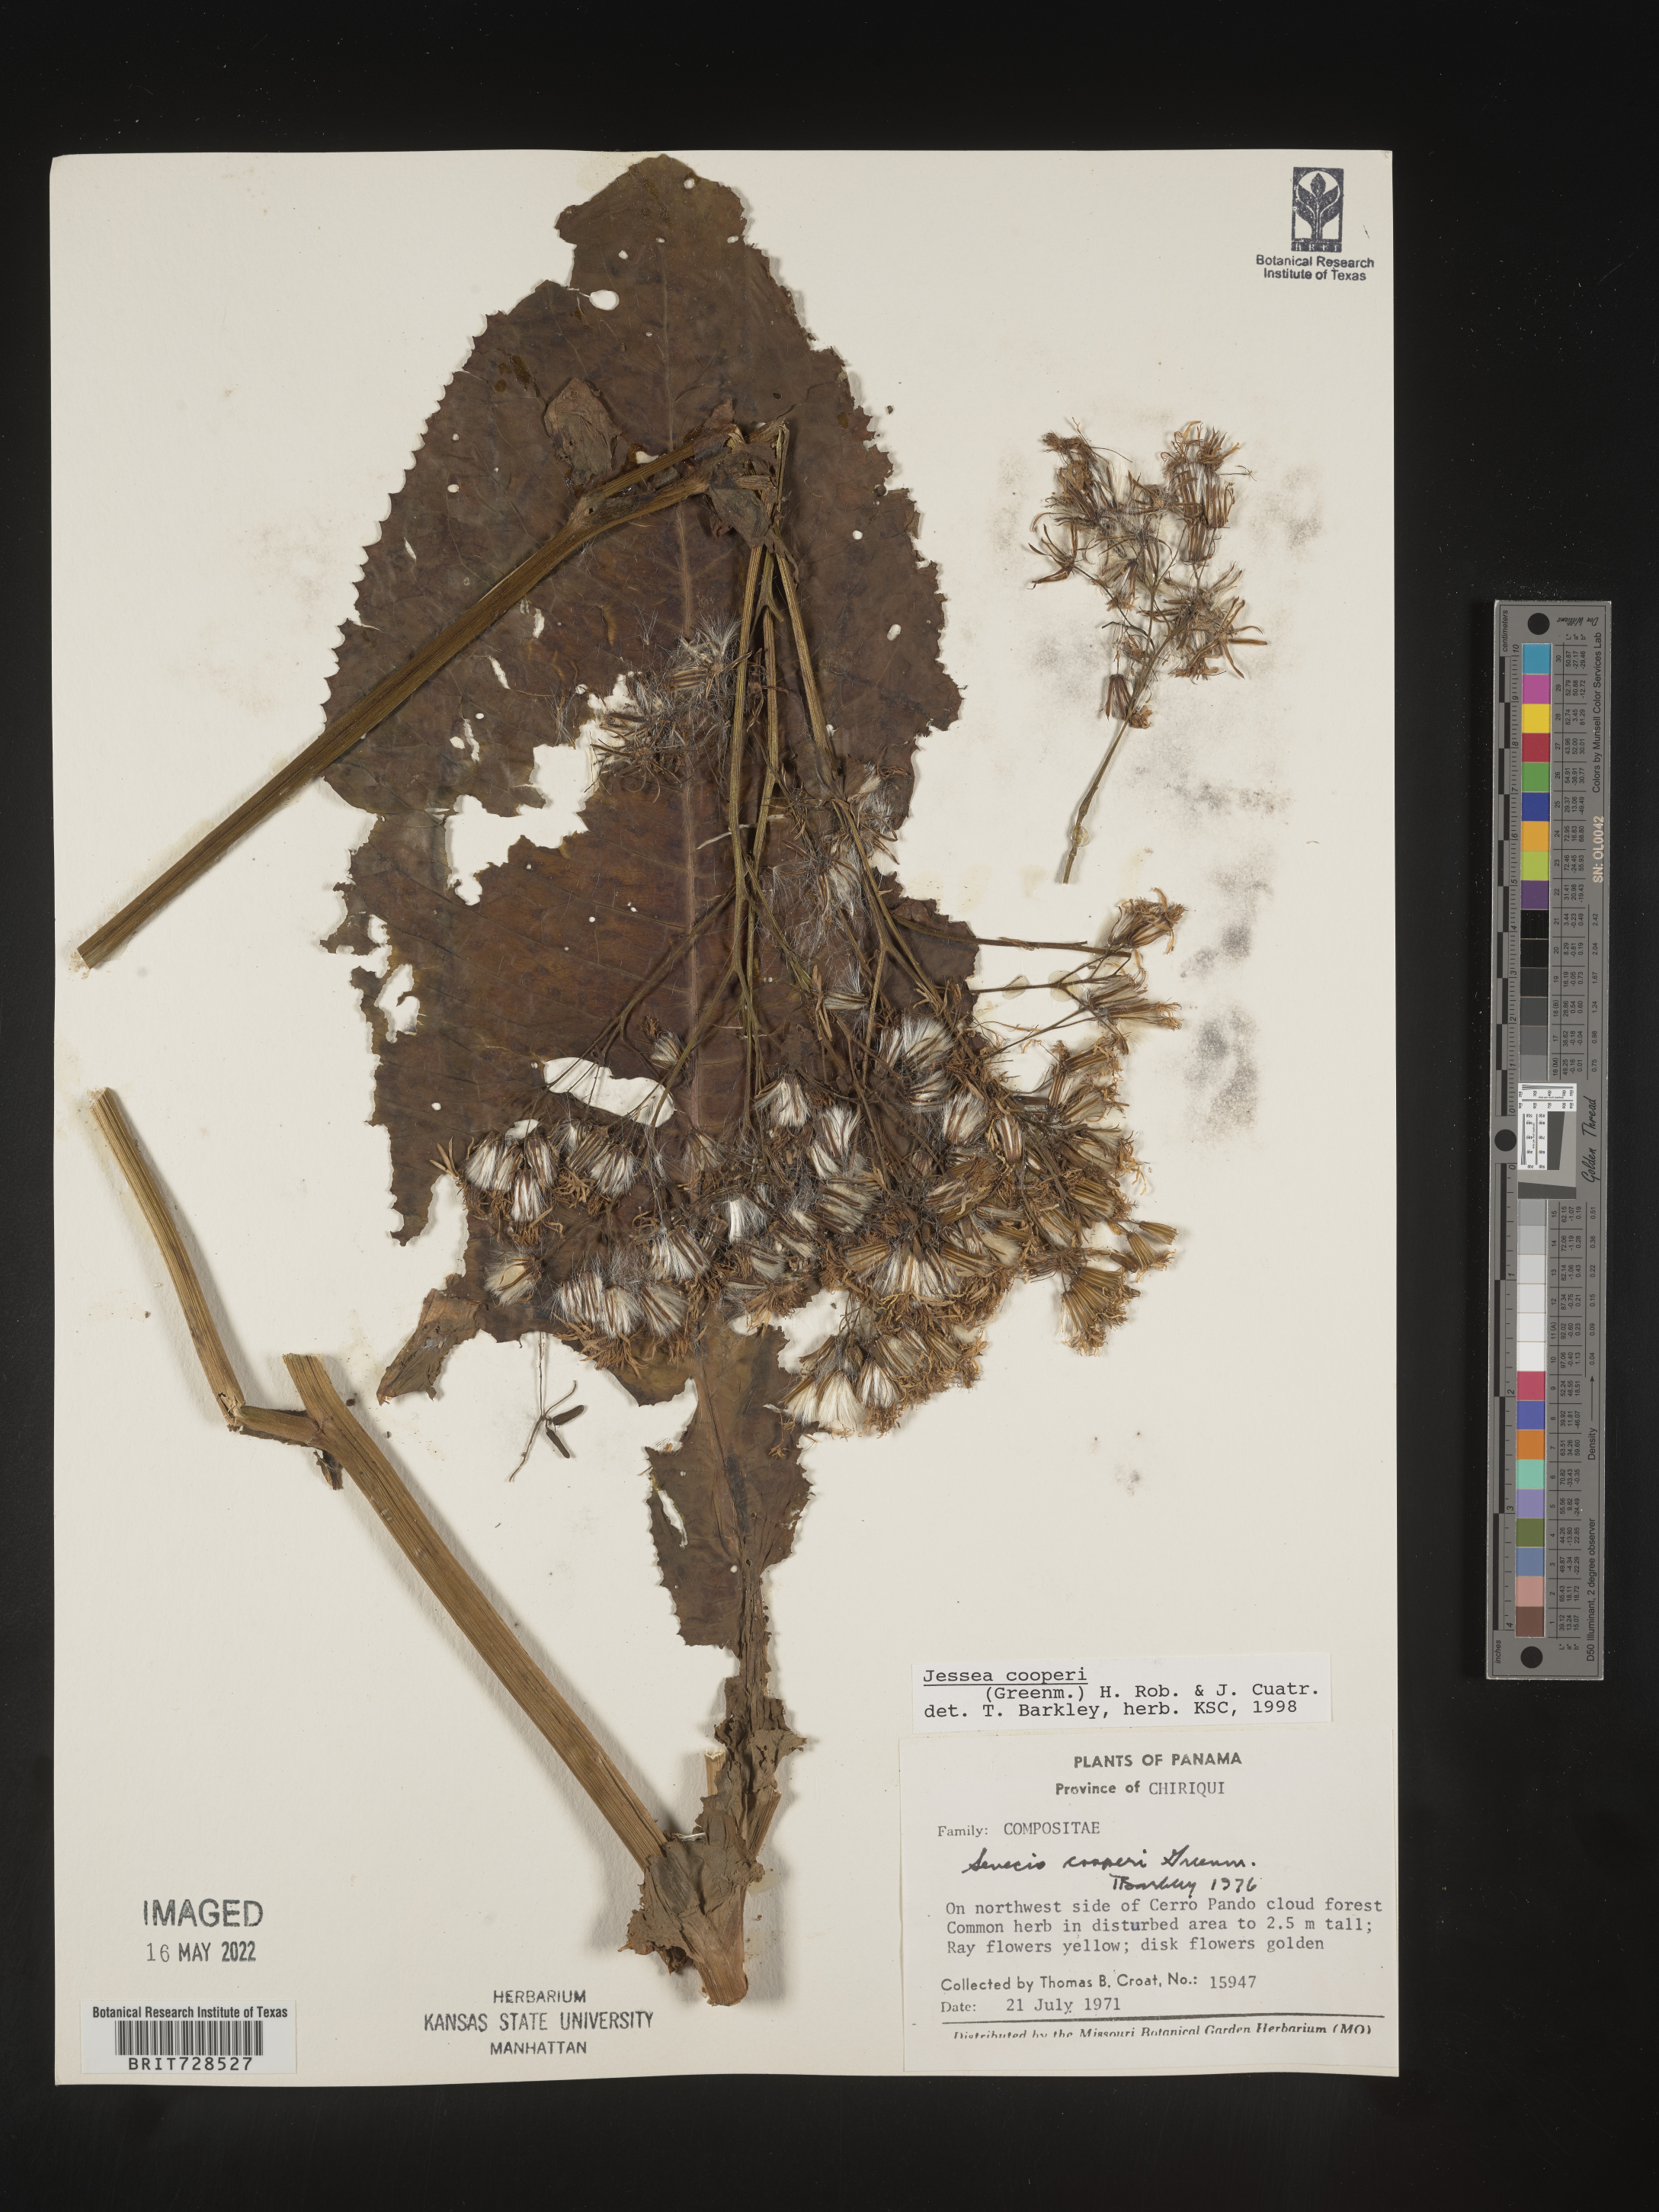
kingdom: Plantae
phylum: Tracheophyta
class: Magnoliopsida
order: Asterales
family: Asteraceae
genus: Jessea
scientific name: Jessea
